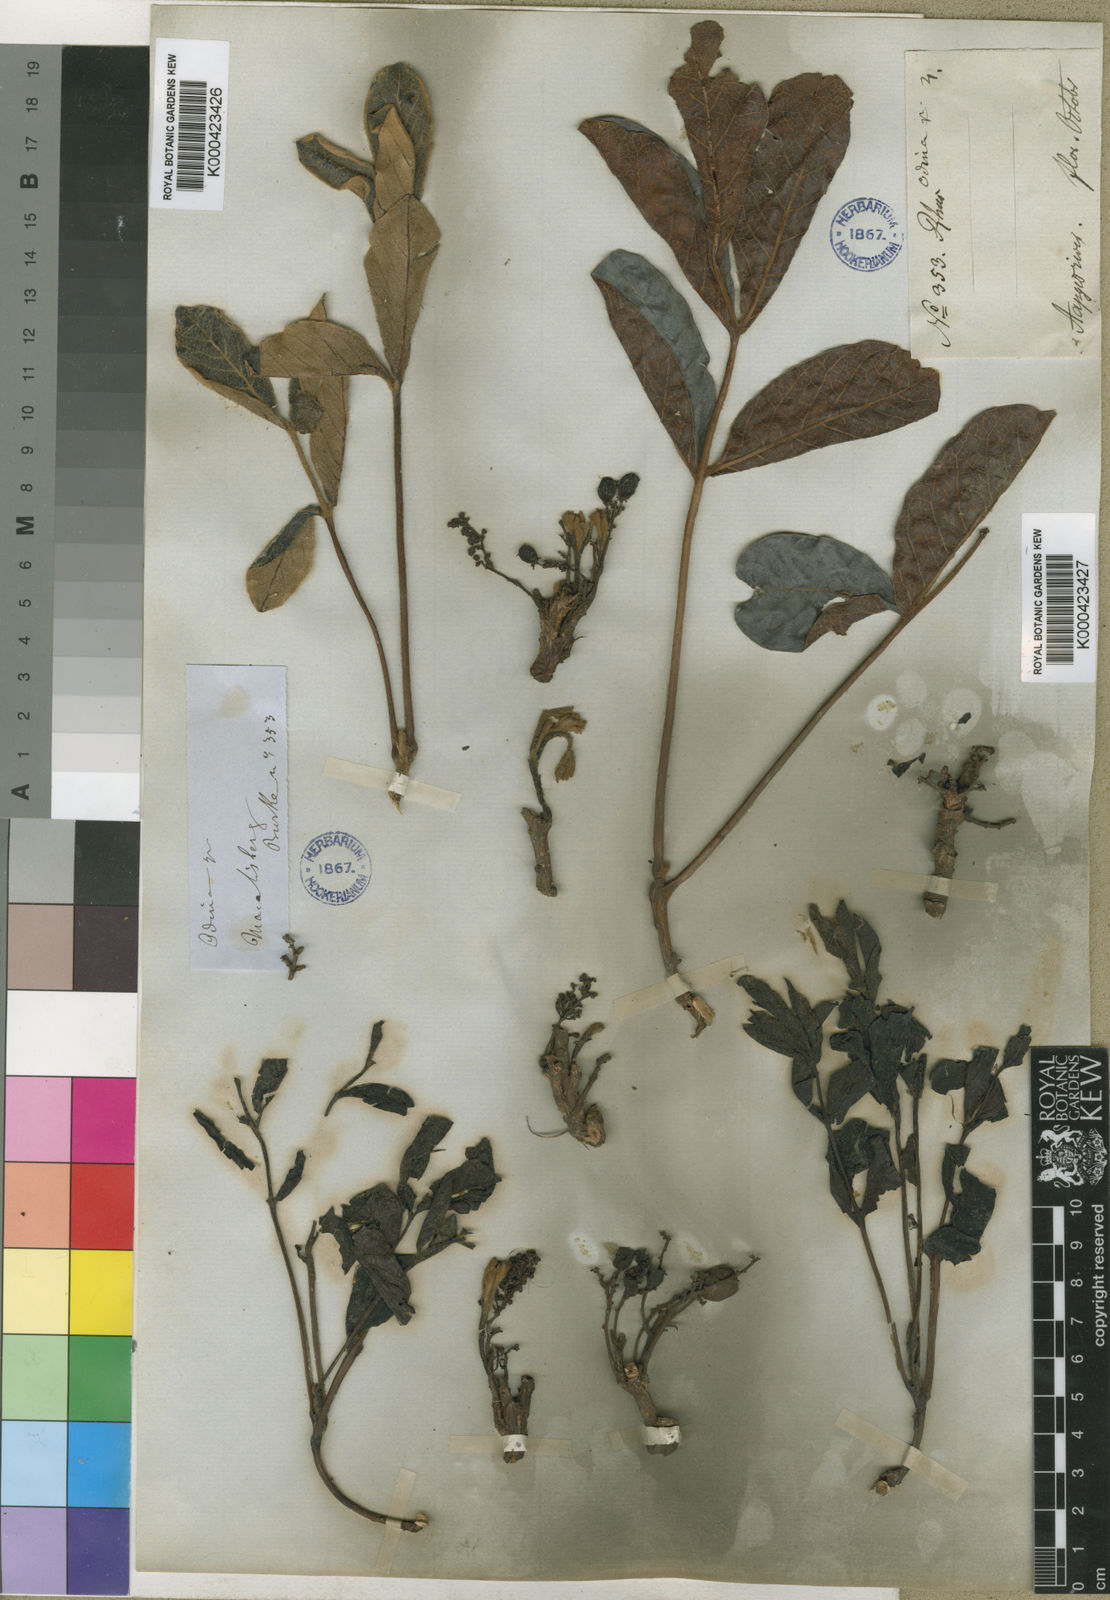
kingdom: Plantae
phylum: Tracheophyta
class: Magnoliopsida
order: Sapindales
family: Anacardiaceae
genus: Lannea
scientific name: Lannea edulis
